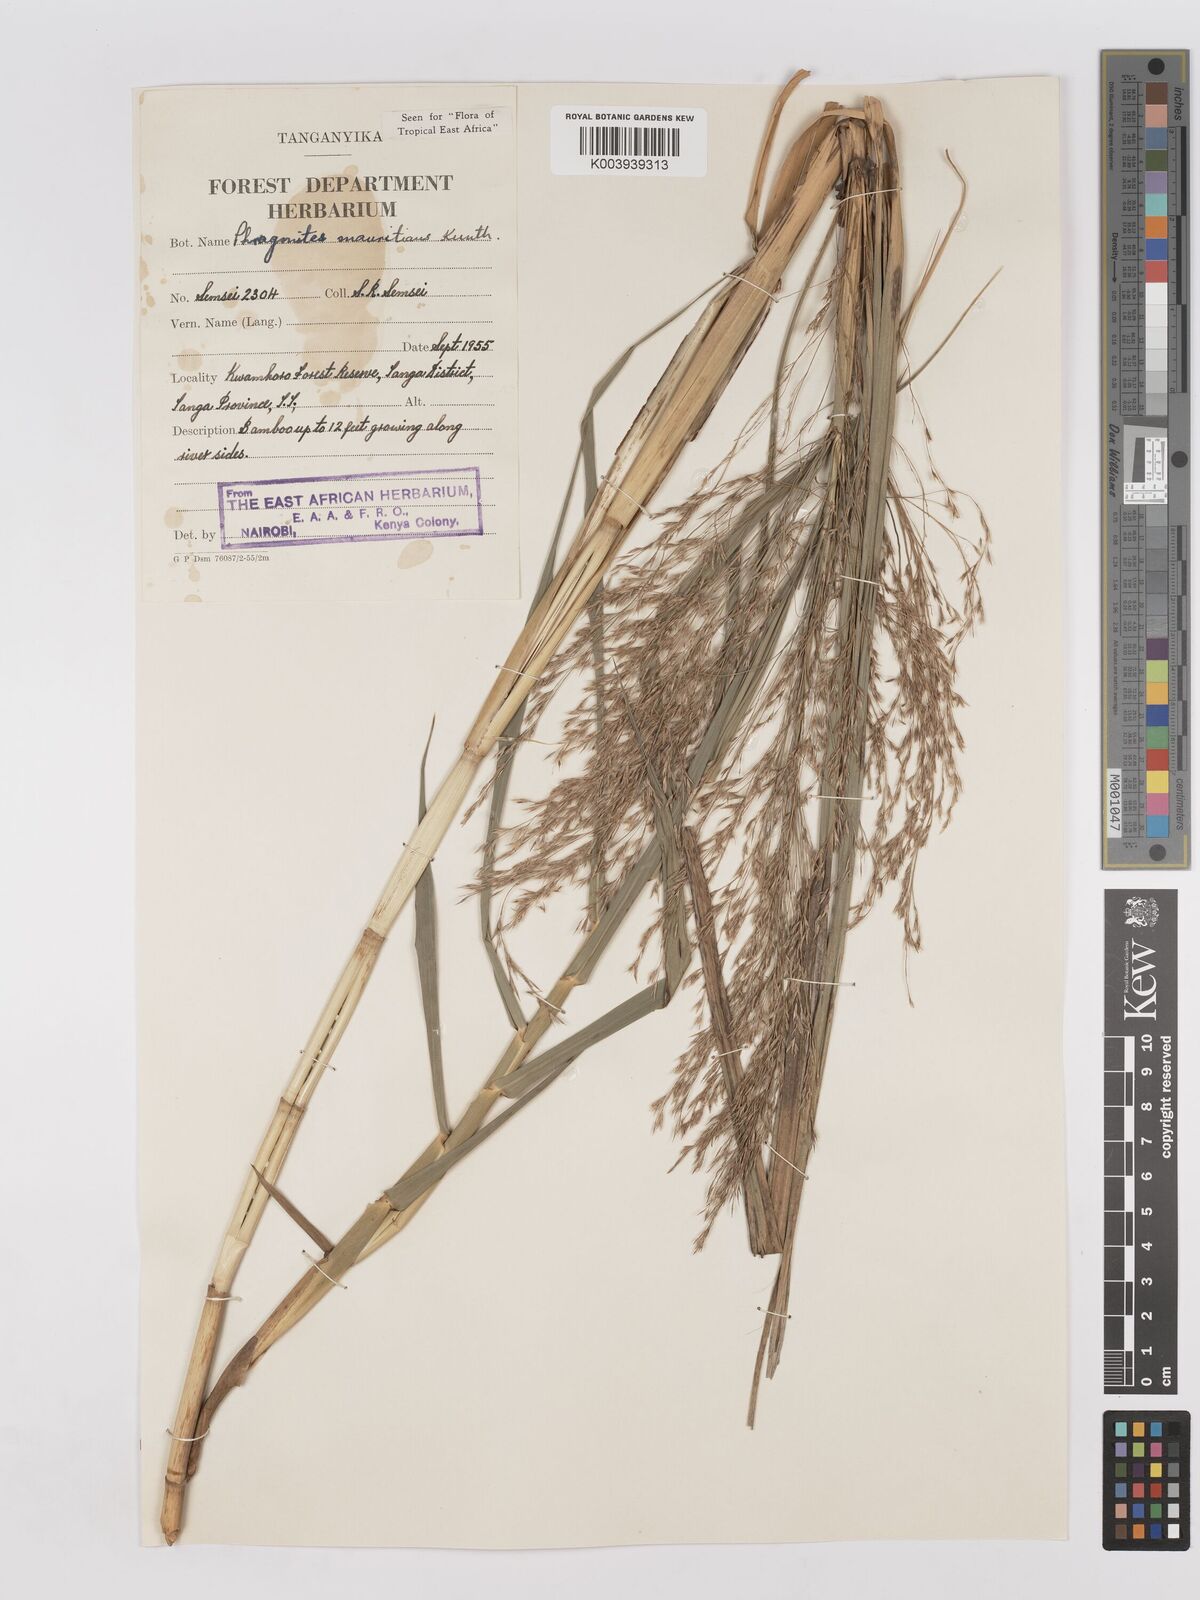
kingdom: Plantae
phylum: Tracheophyta
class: Liliopsida
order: Poales
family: Poaceae
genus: Phragmites
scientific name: Phragmites mauritianus
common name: Reed grass
